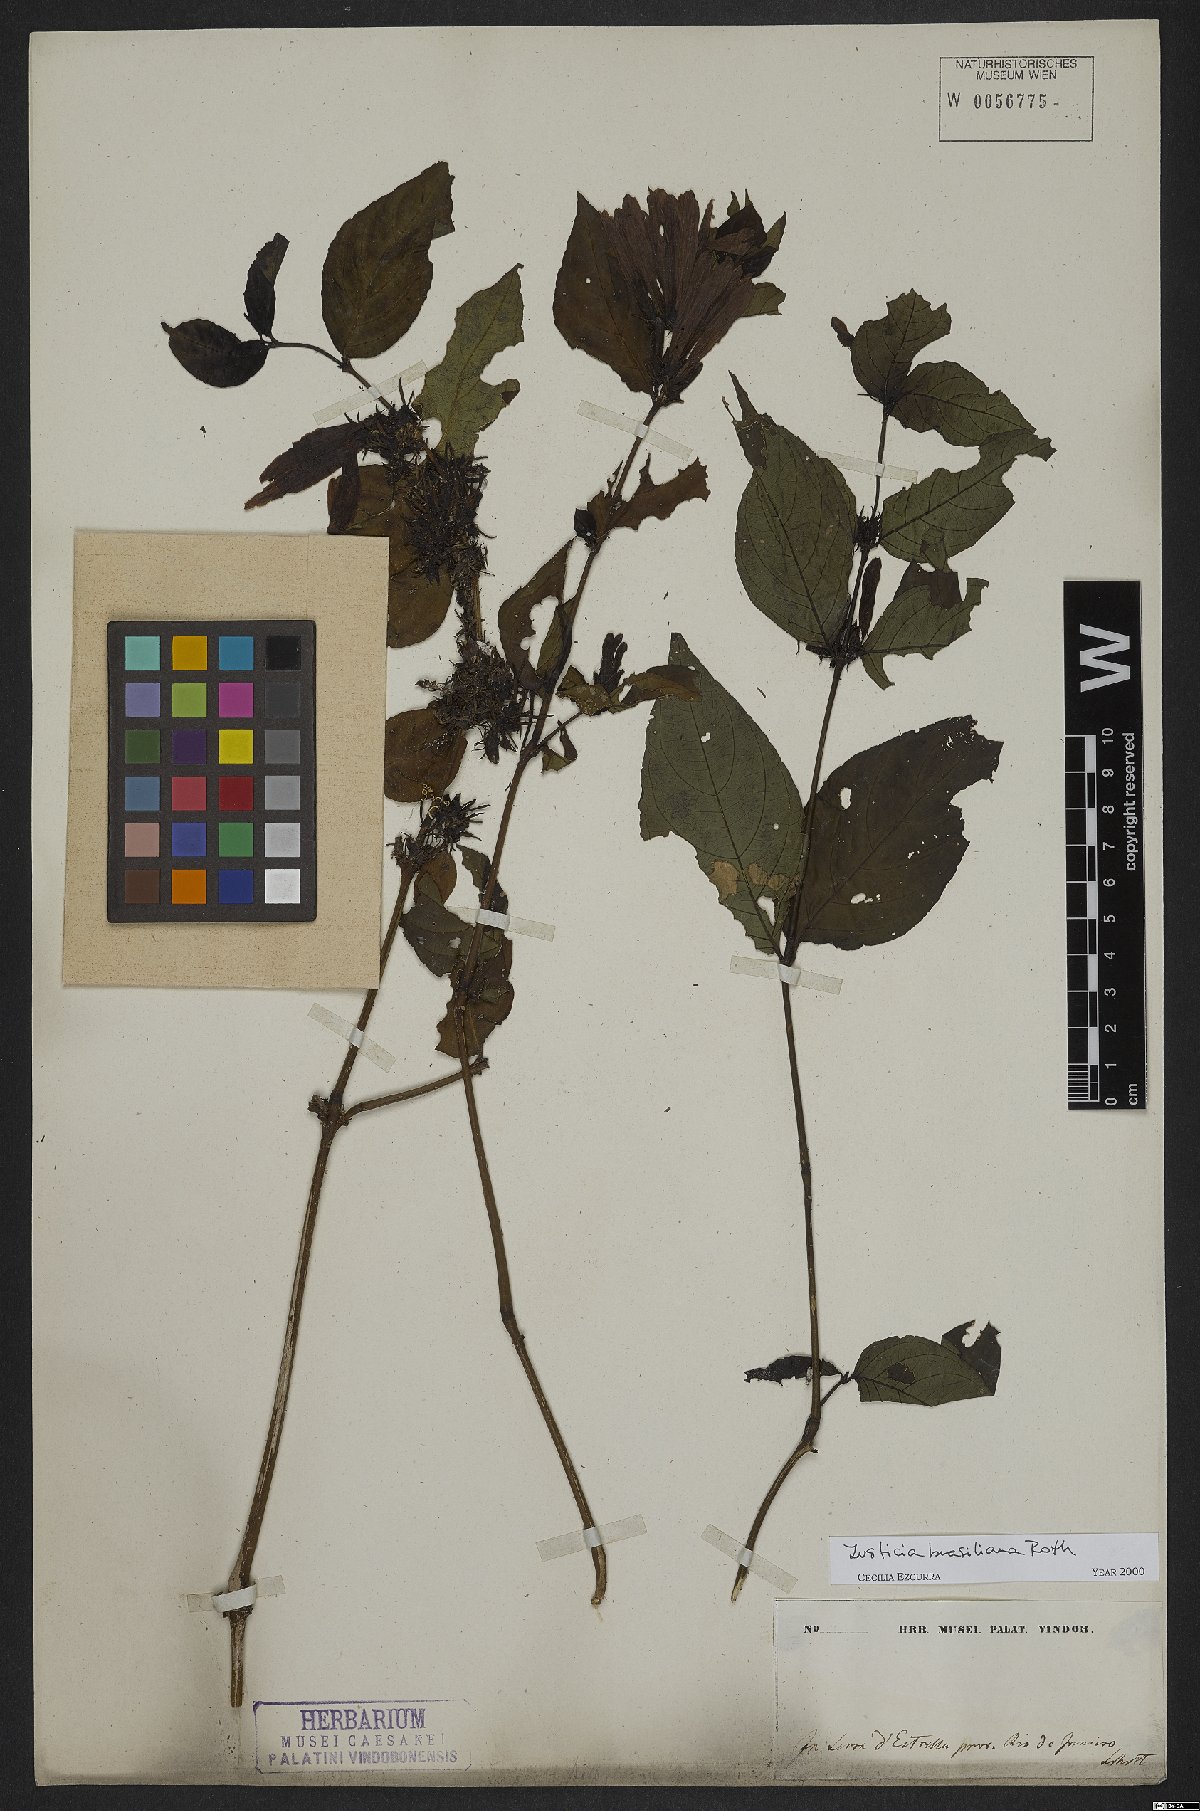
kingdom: Plantae
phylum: Tracheophyta
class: Magnoliopsida
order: Lamiales
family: Acanthaceae
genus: Justicia
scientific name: Justicia brasiliana
